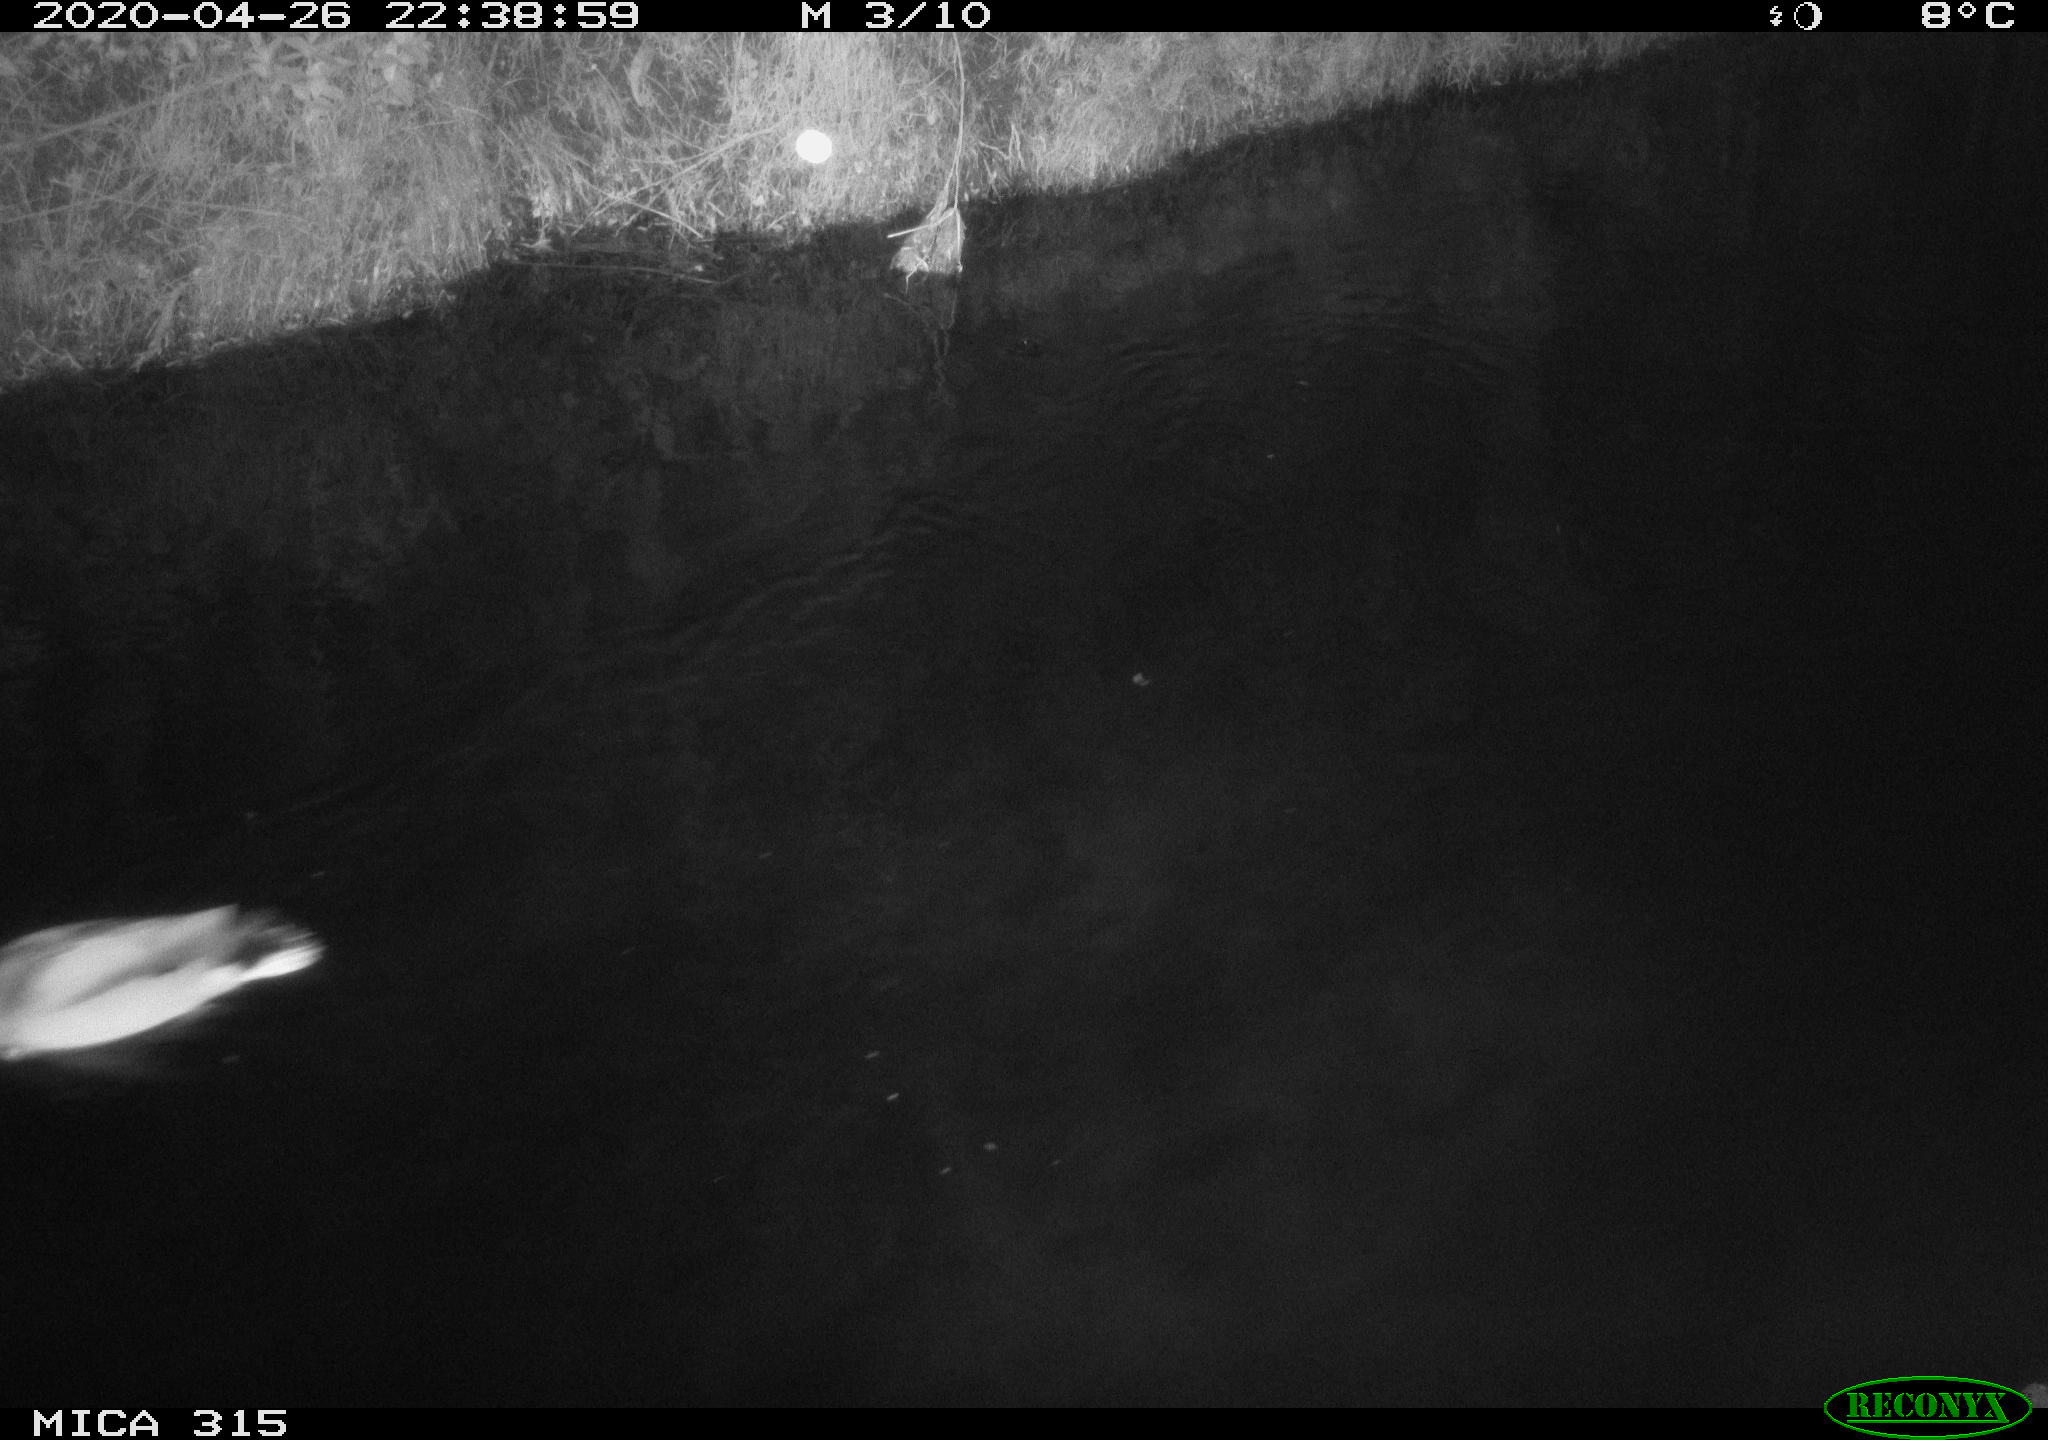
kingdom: Animalia
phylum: Chordata
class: Aves
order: Anseriformes
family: Anatidae
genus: Anas
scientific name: Anas platyrhynchos
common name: Mallard
